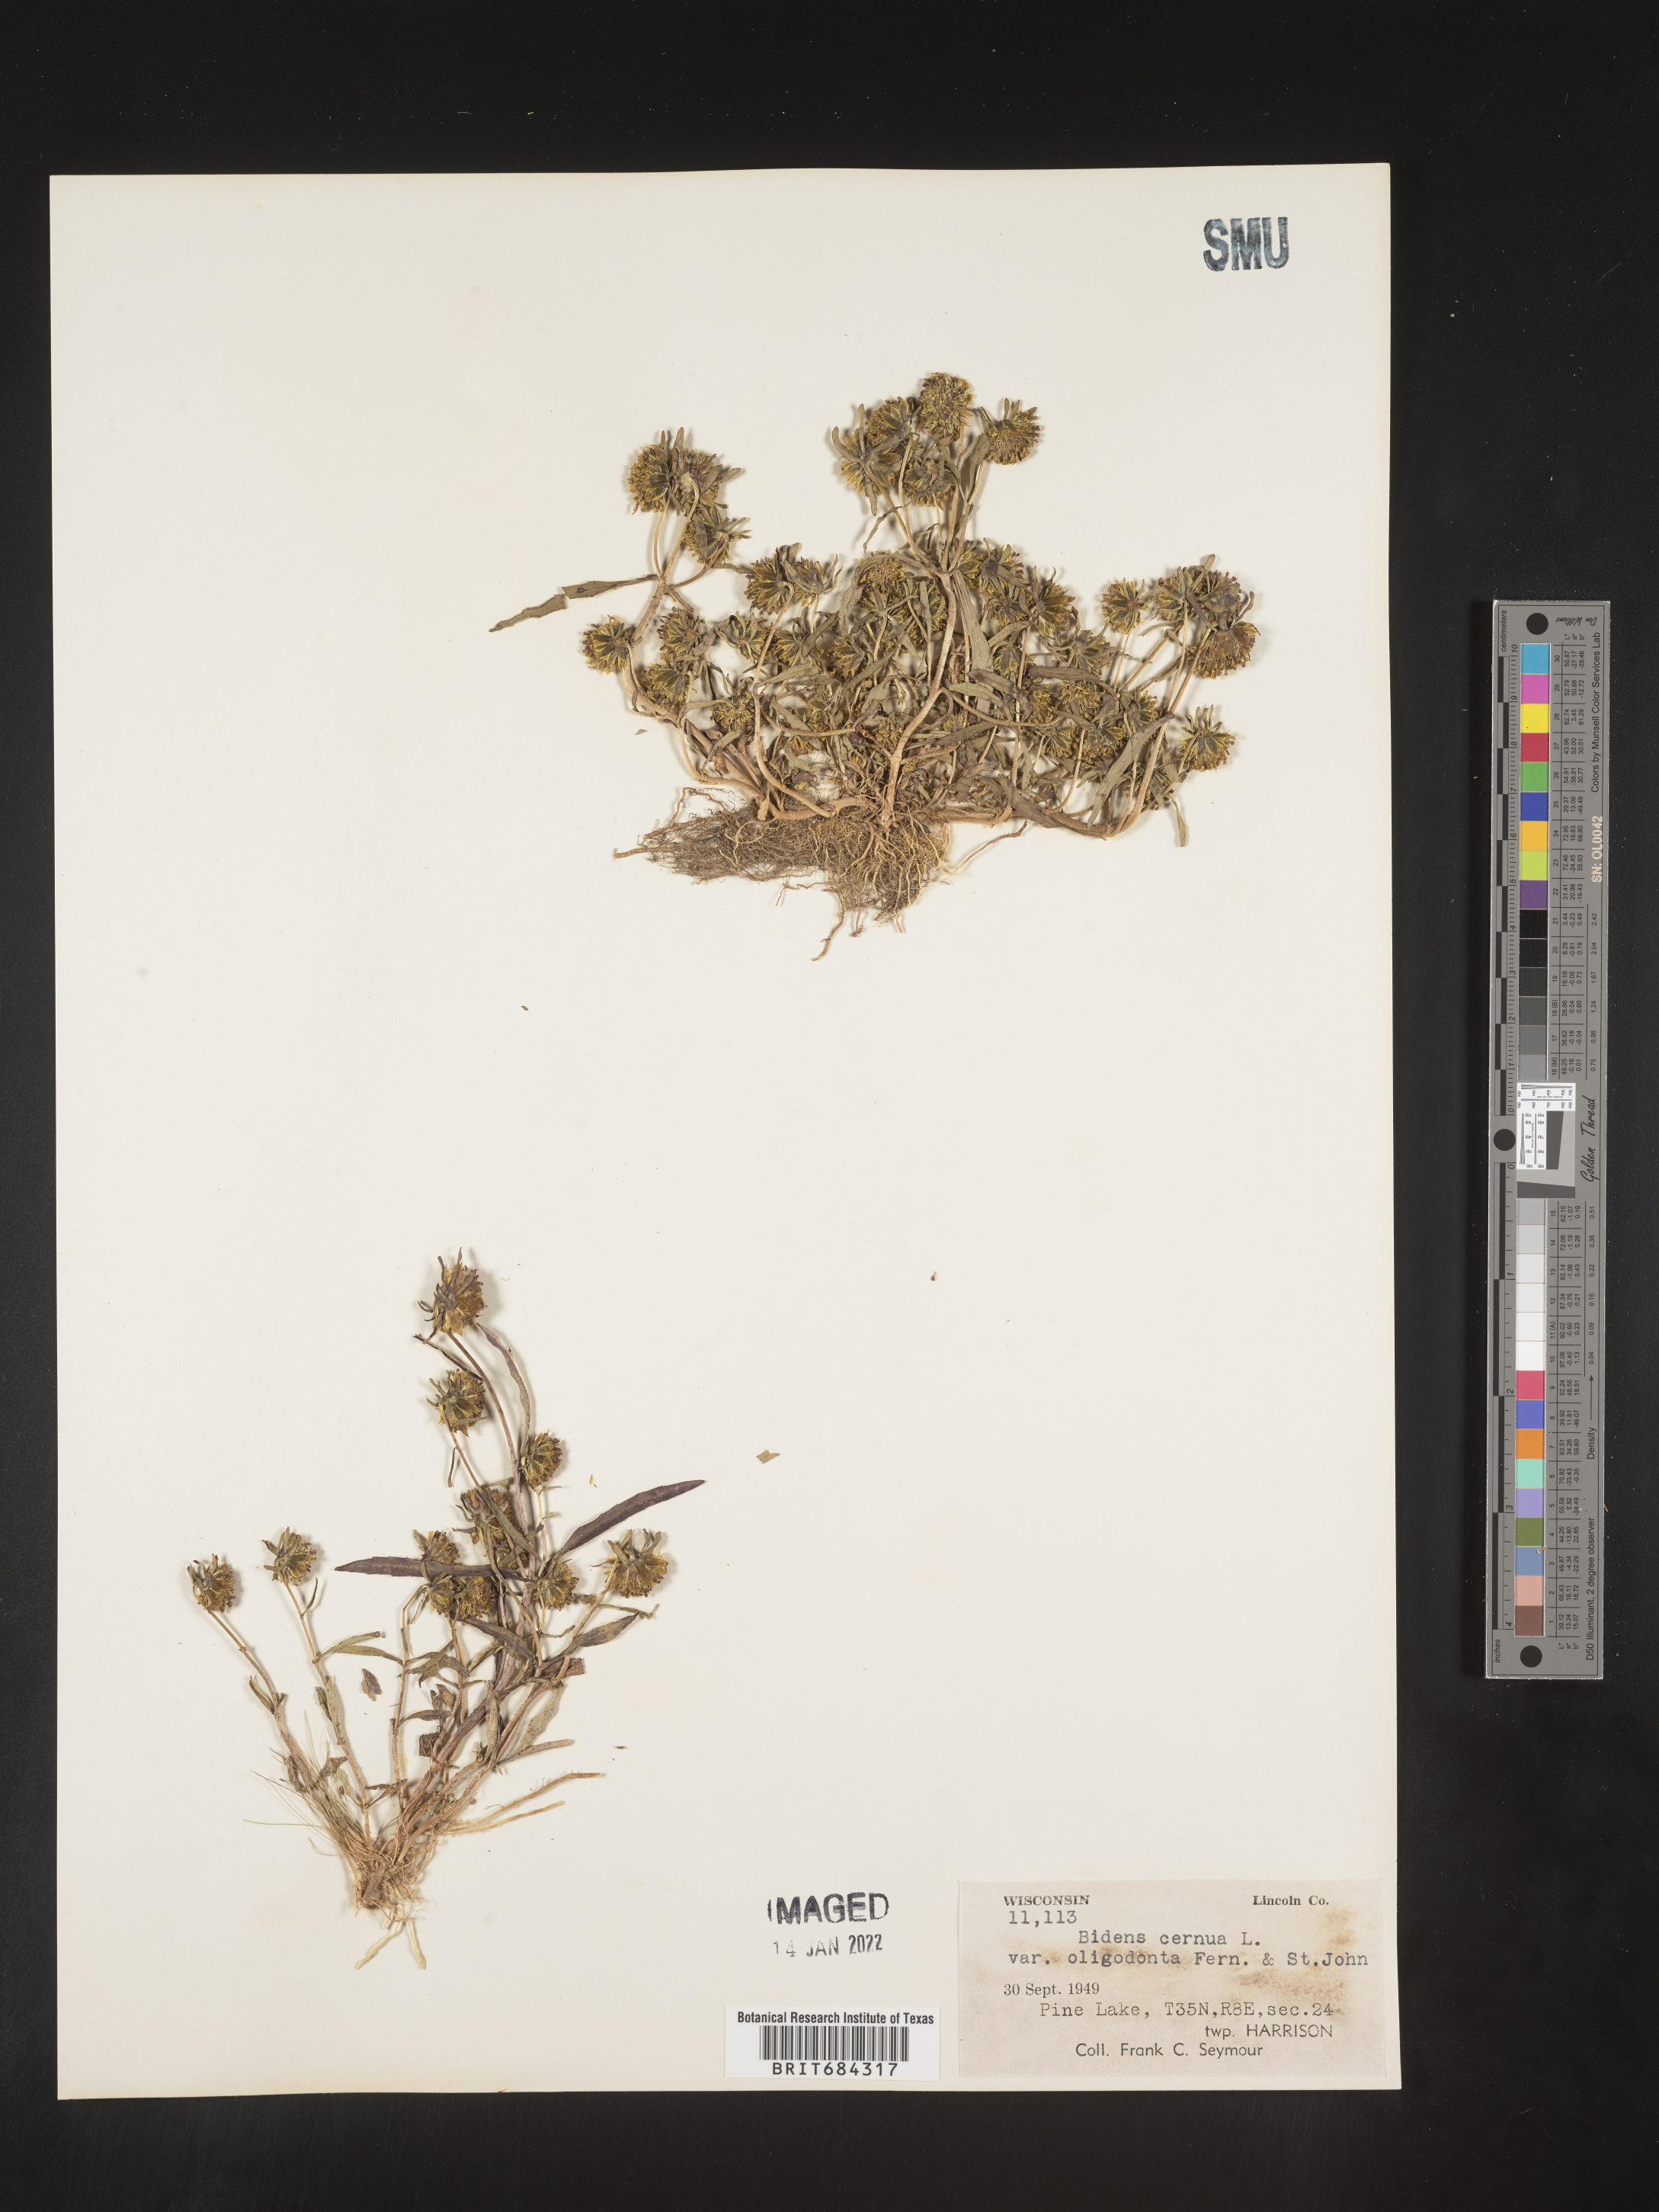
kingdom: Plantae
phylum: Tracheophyta
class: Magnoliopsida
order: Asterales
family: Asteraceae
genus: Bidens
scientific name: Bidens cernua
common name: Nodding bur-marigold
